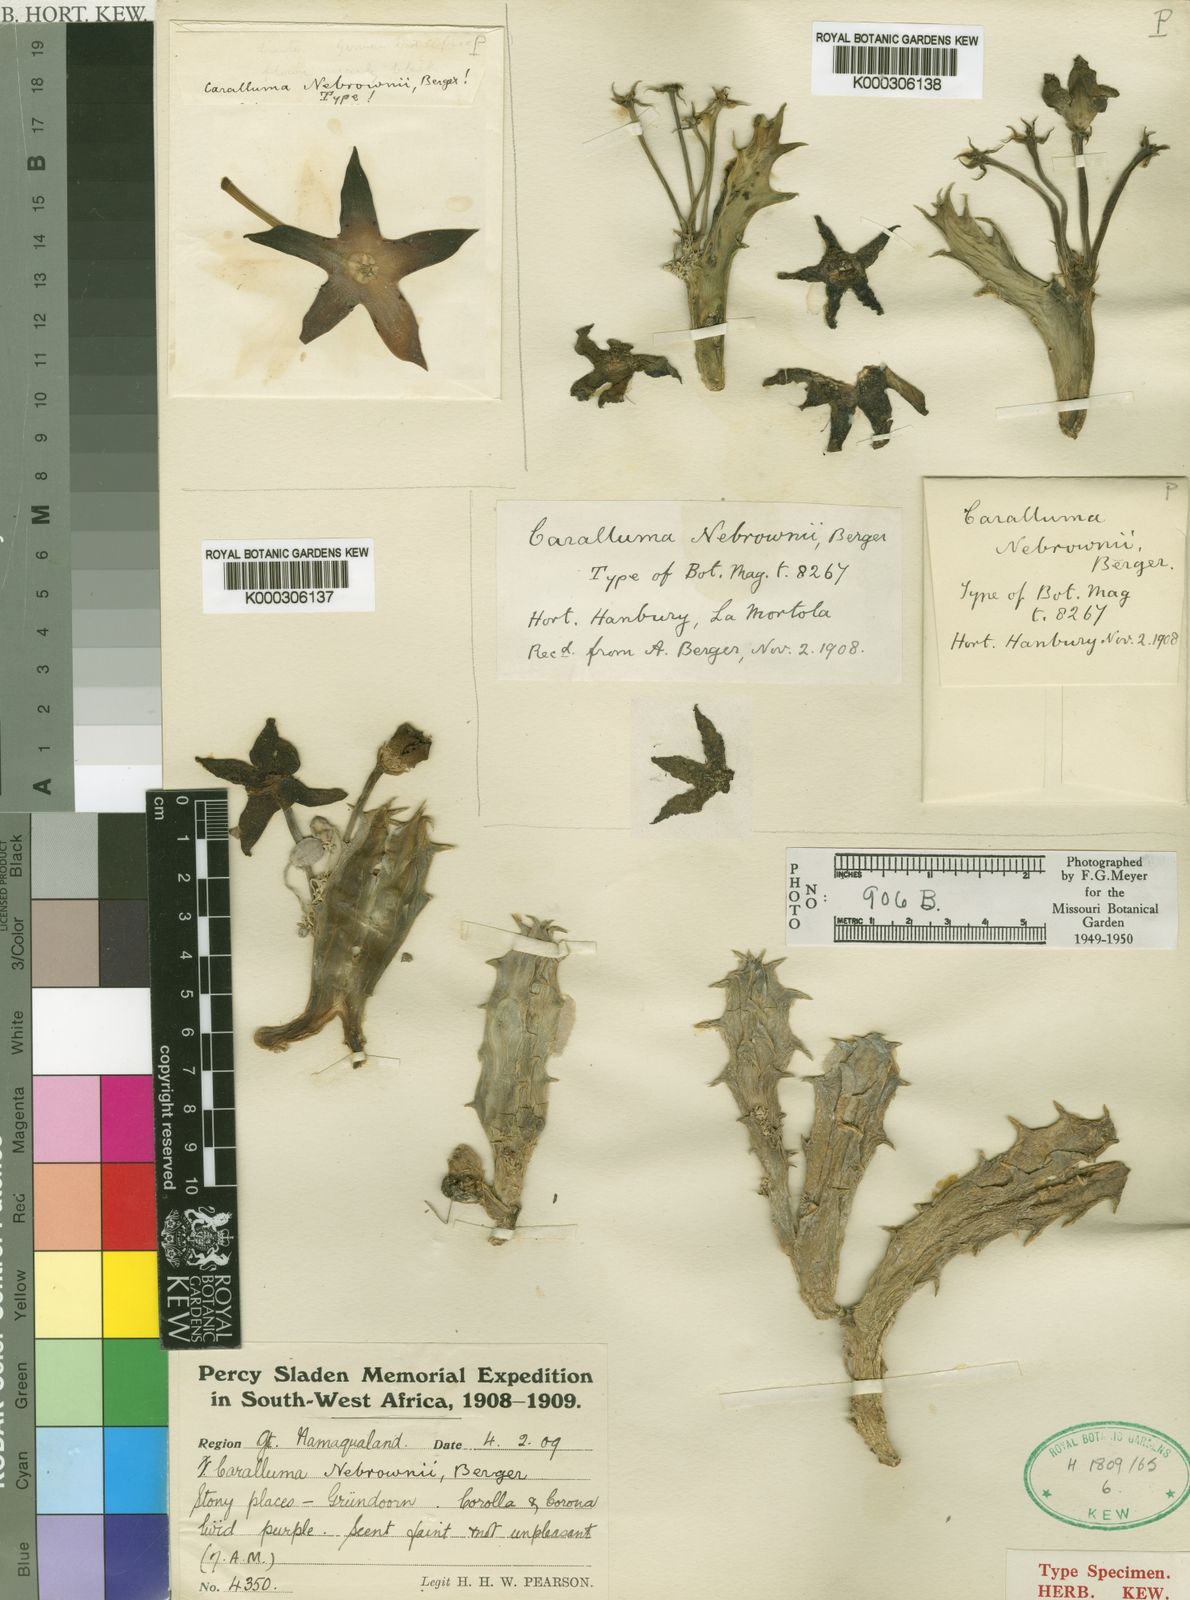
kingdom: Plantae
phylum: Tracheophyta
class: Magnoliopsida
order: Gentianales
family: Apocynaceae
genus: Ceropegia
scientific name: Ceropegia lutea
